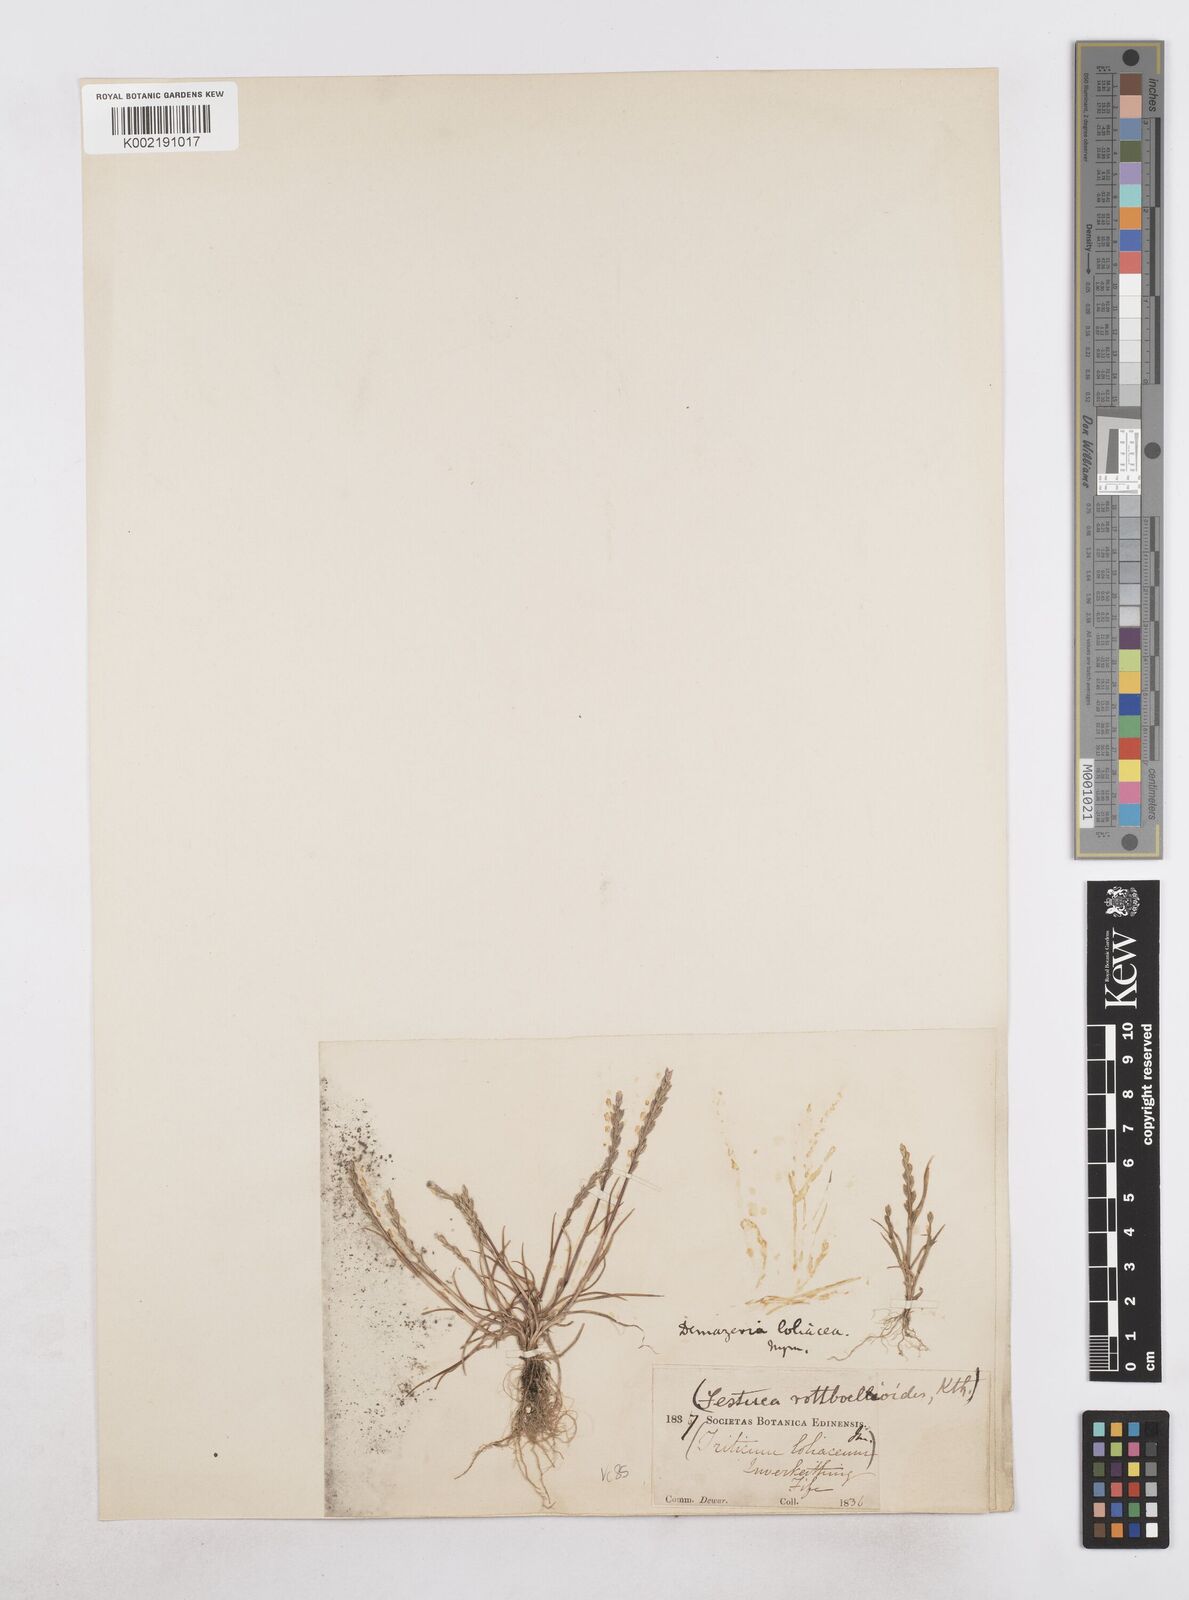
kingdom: Plantae
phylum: Tracheophyta
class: Liliopsida
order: Poales
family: Poaceae
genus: Catapodium
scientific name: Catapodium marinum
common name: Sea fern-grass
